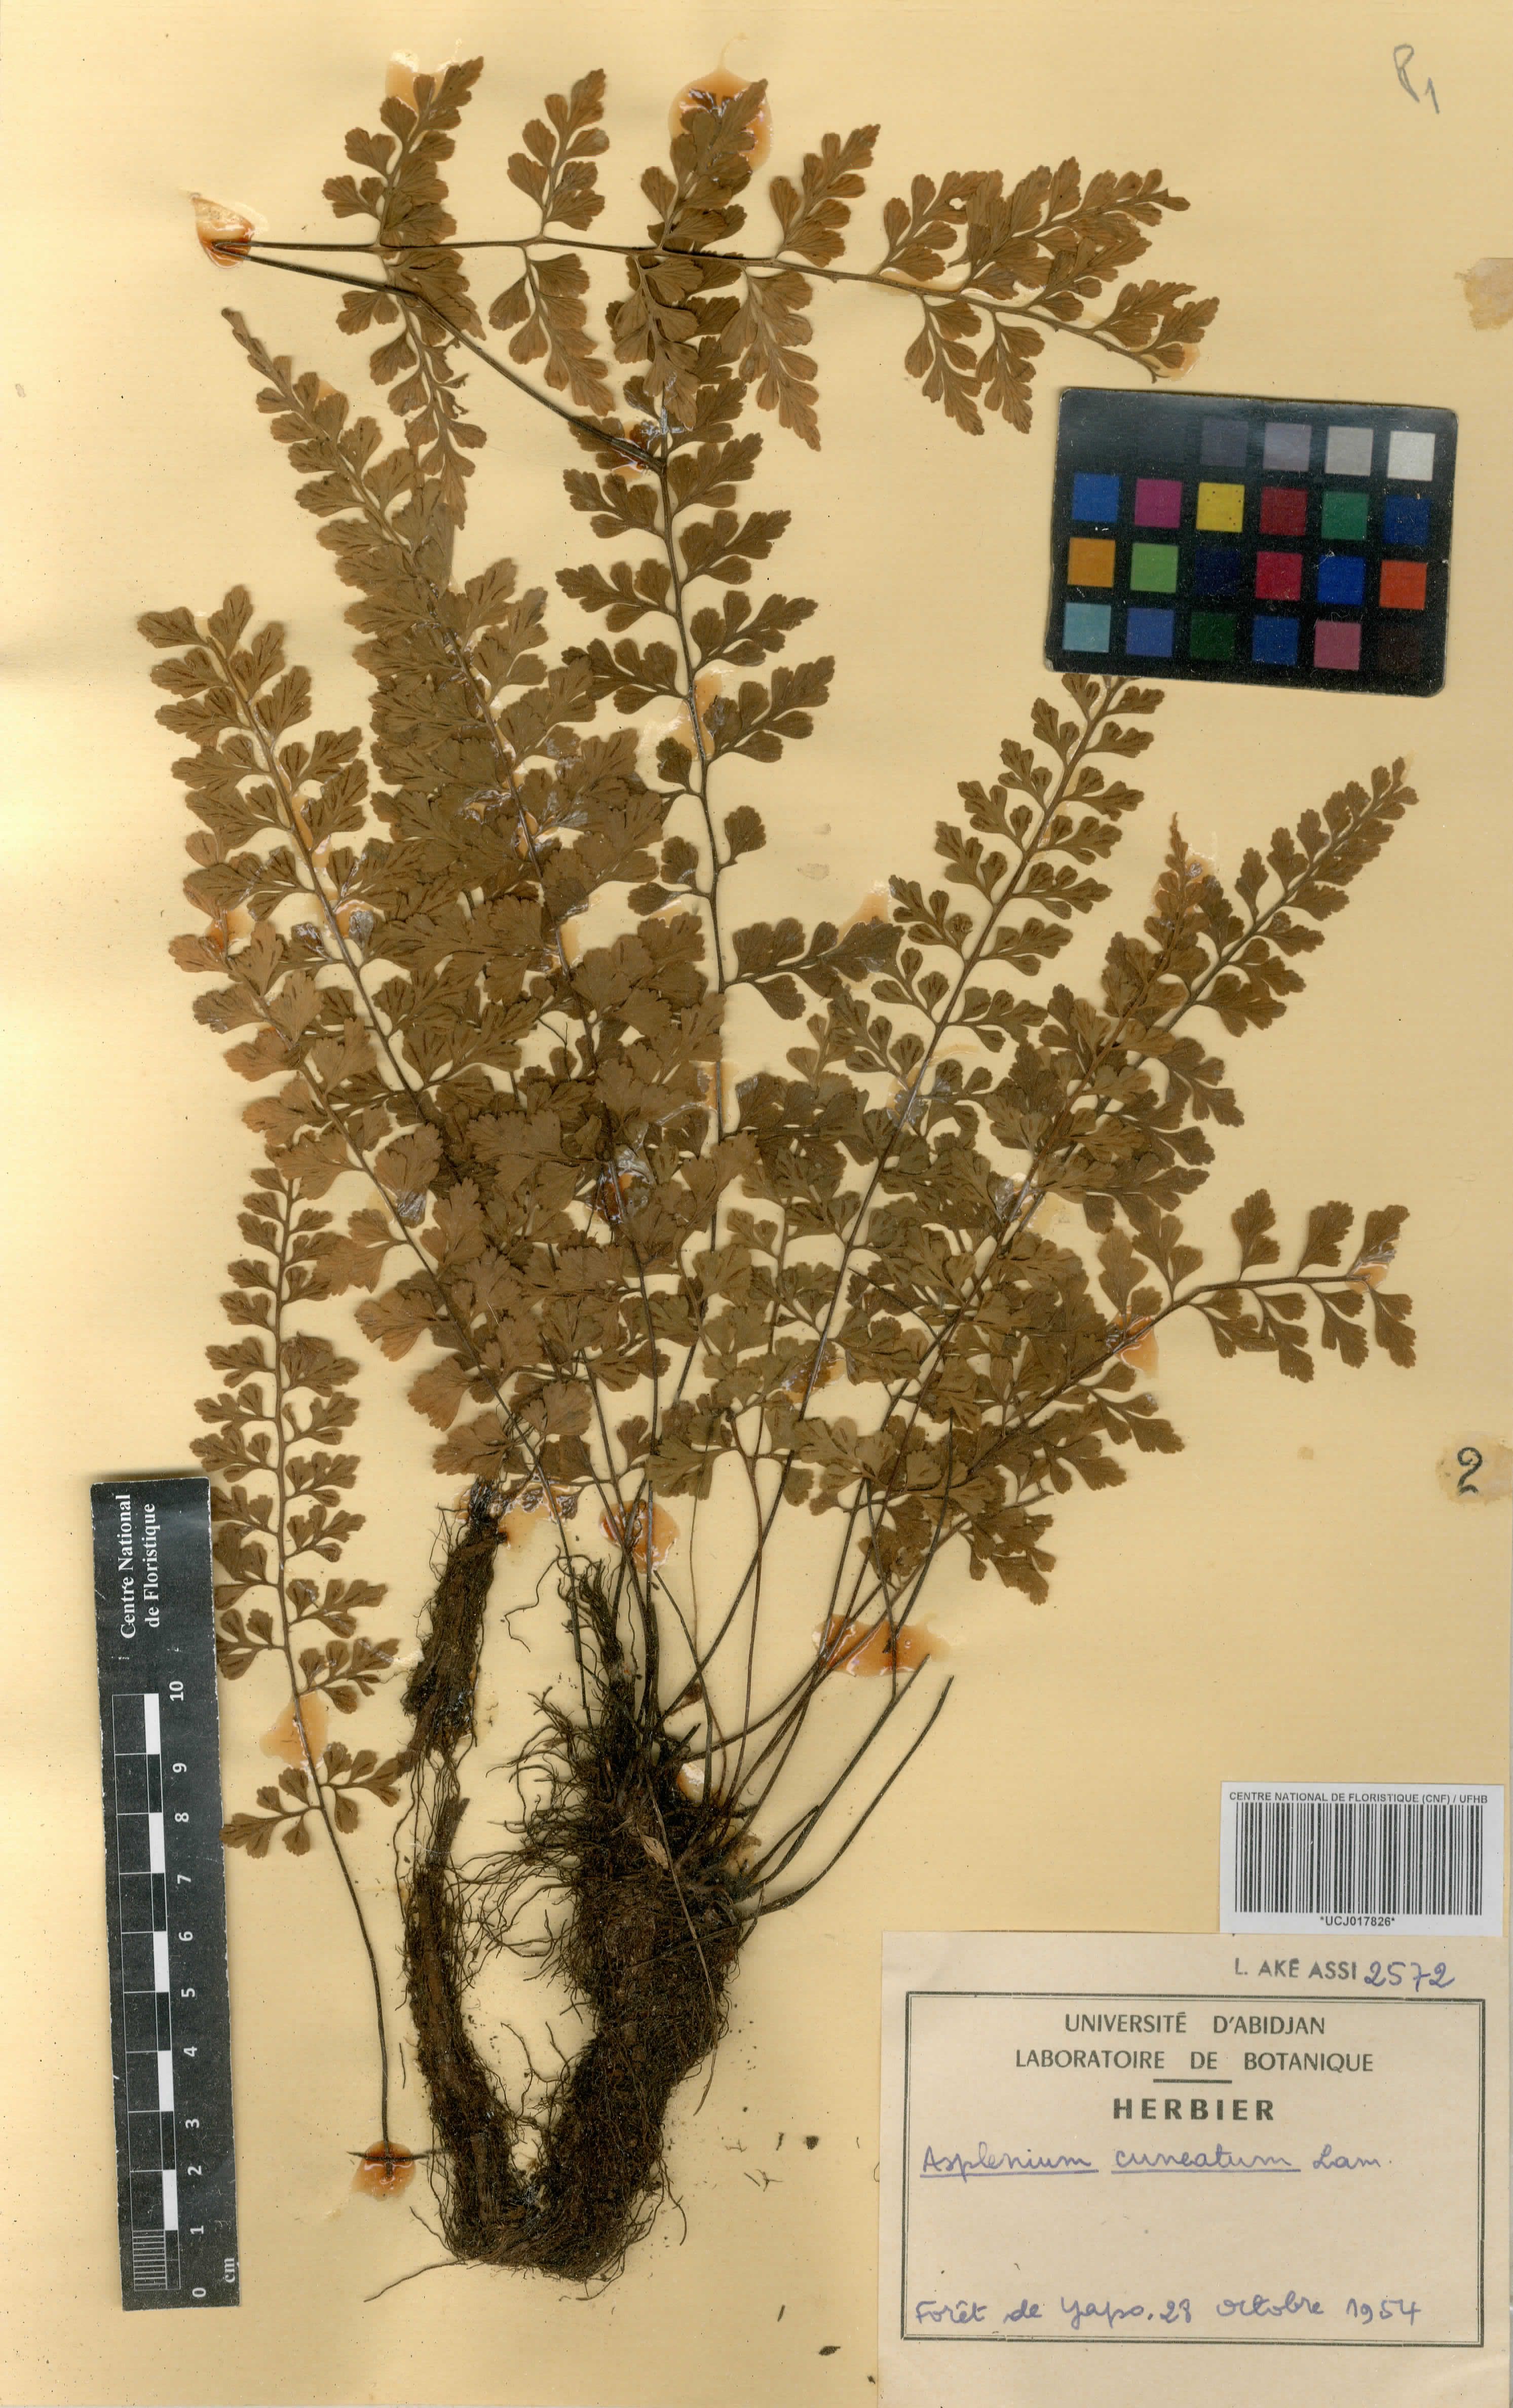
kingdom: Plantae
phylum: Tracheophyta
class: Polypodiopsida
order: Polypodiales
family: Aspleniaceae
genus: Asplenium
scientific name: Asplenium cuneatum
